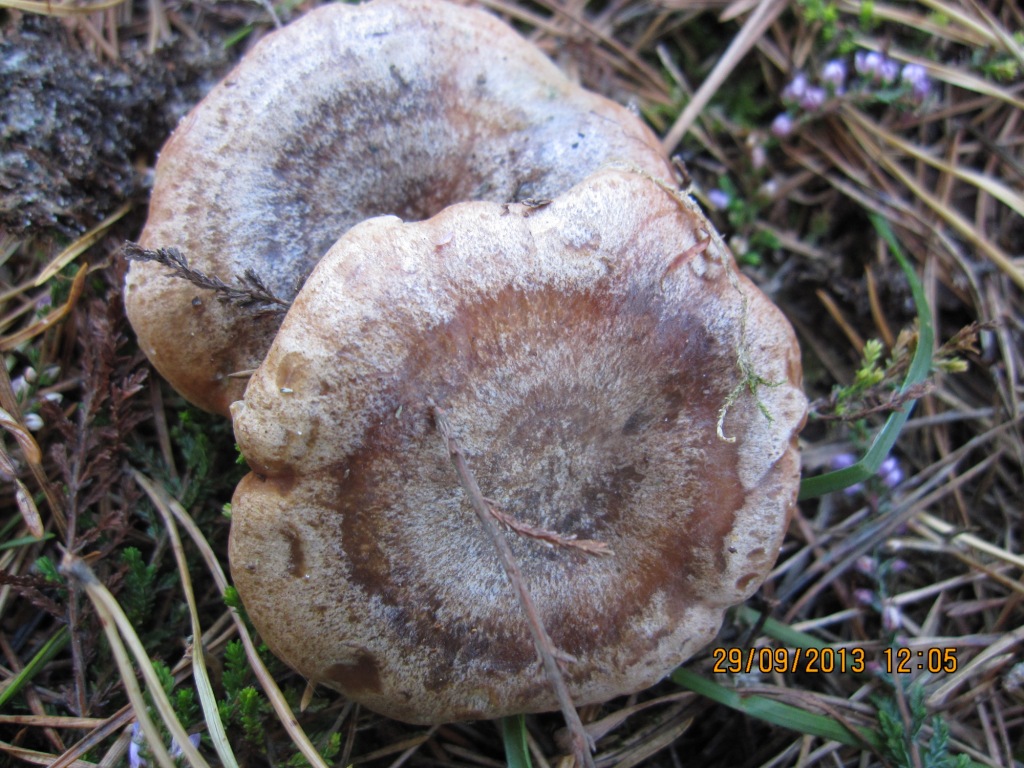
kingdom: Fungi
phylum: Basidiomycota
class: Agaricomycetes
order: Russulales
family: Russulaceae
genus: Lactarius
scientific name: Lactarius deliciosus
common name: velsmagende mælkehat
